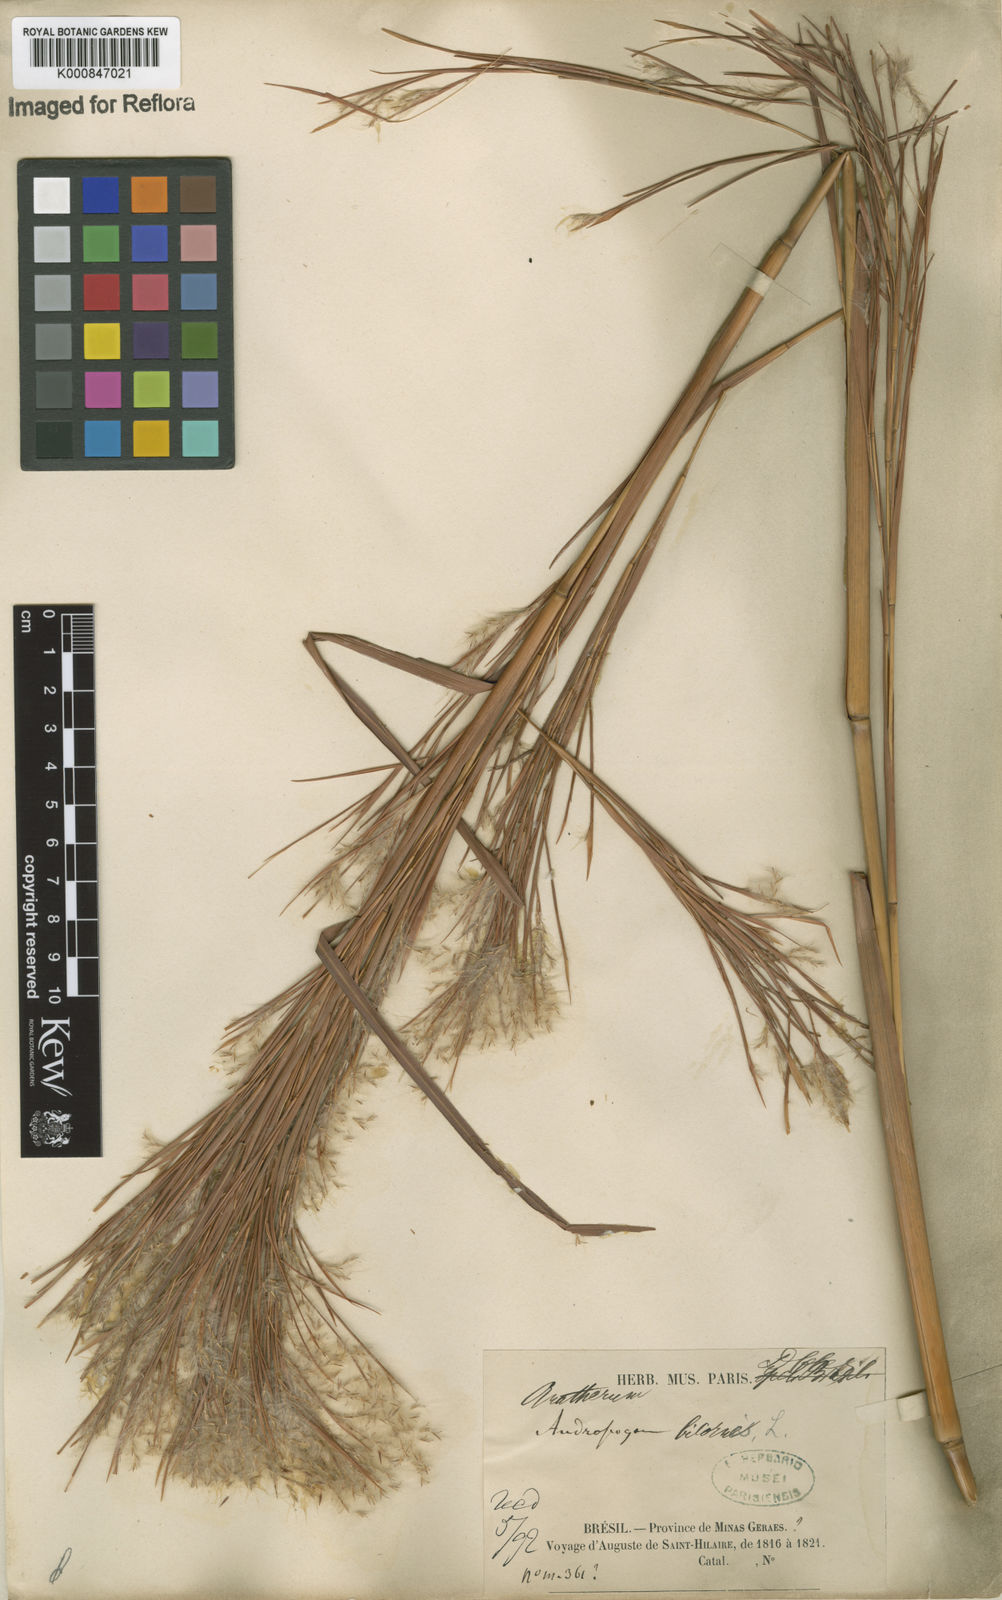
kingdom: Plantae
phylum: Tracheophyta
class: Liliopsida
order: Poales
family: Poaceae
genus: Andropogon
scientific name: Andropogon
